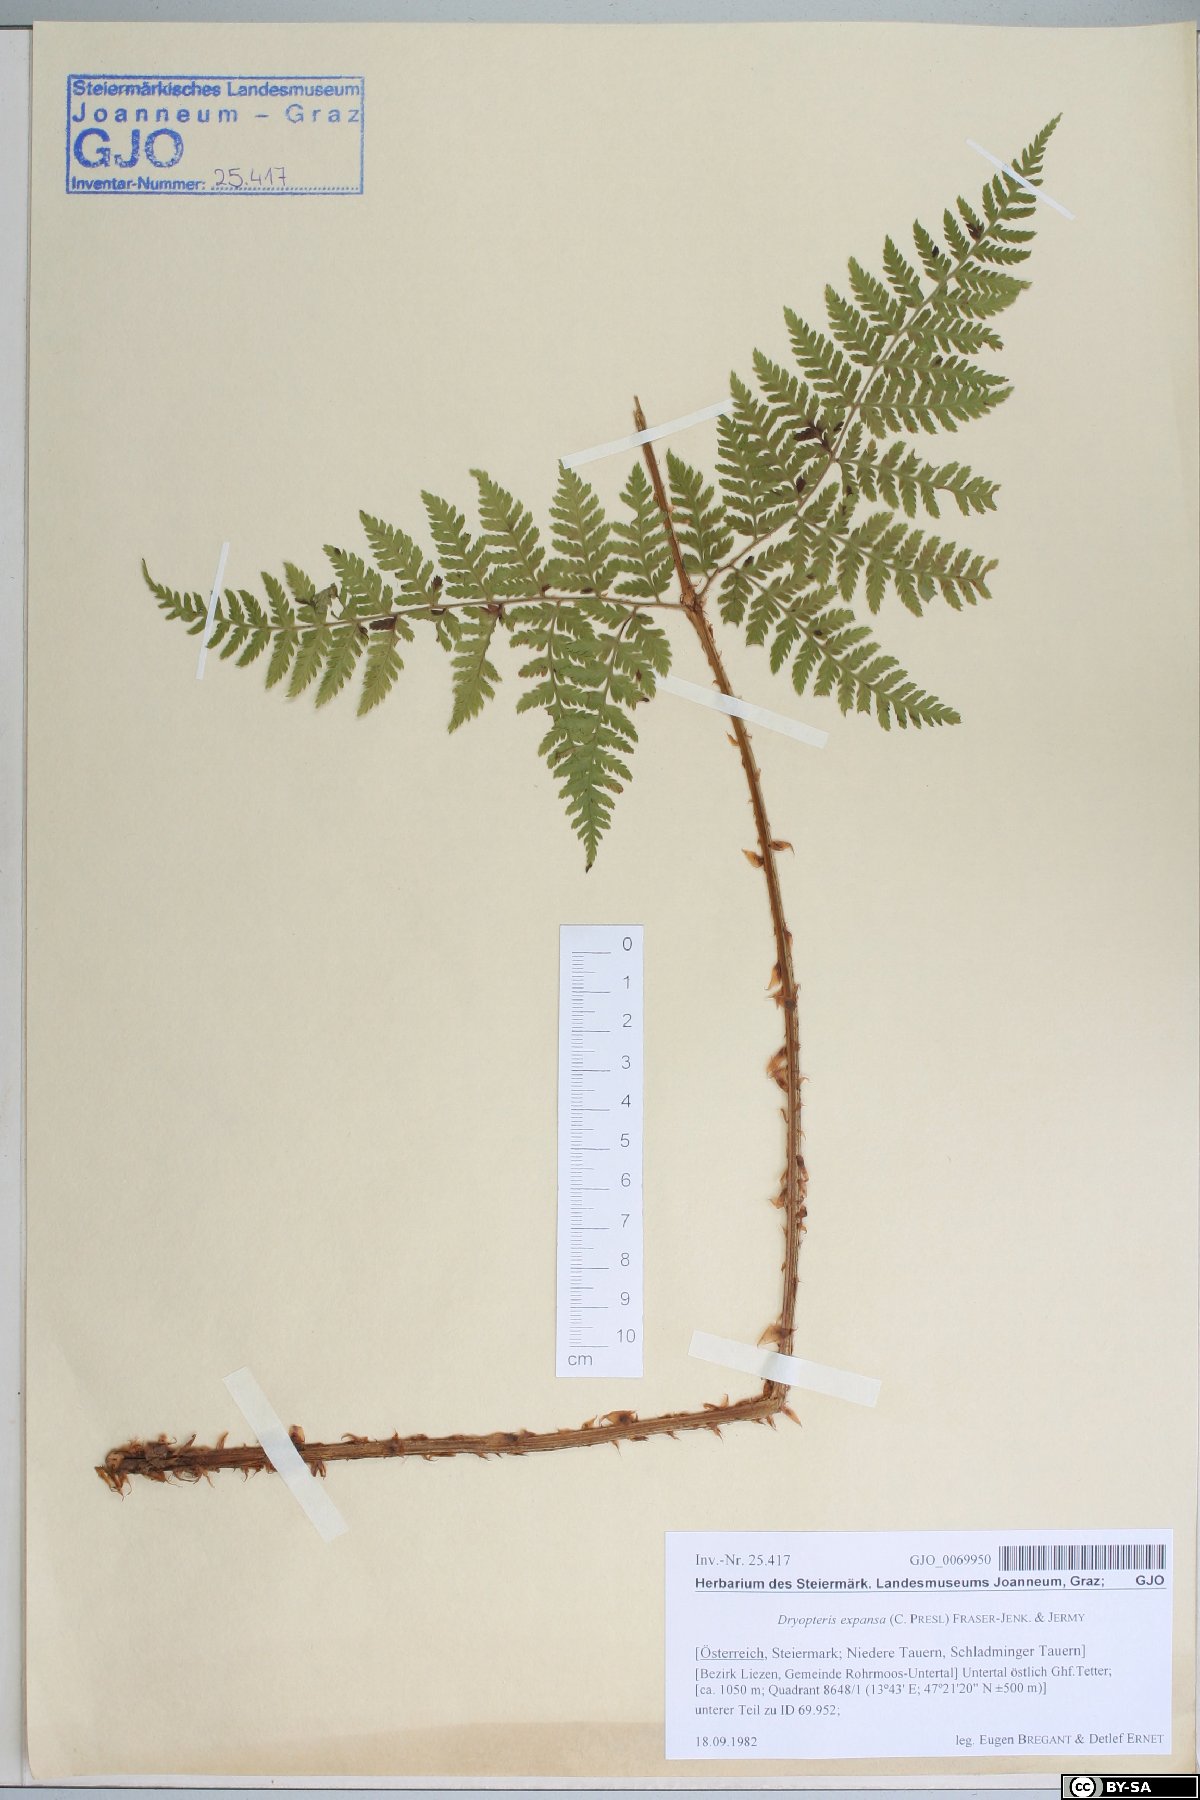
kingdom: Plantae
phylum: Tracheophyta
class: Polypodiopsida
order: Polypodiales
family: Dryopteridaceae
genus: Dryopteris
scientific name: Dryopteris expansa
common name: Northern buckler fern
